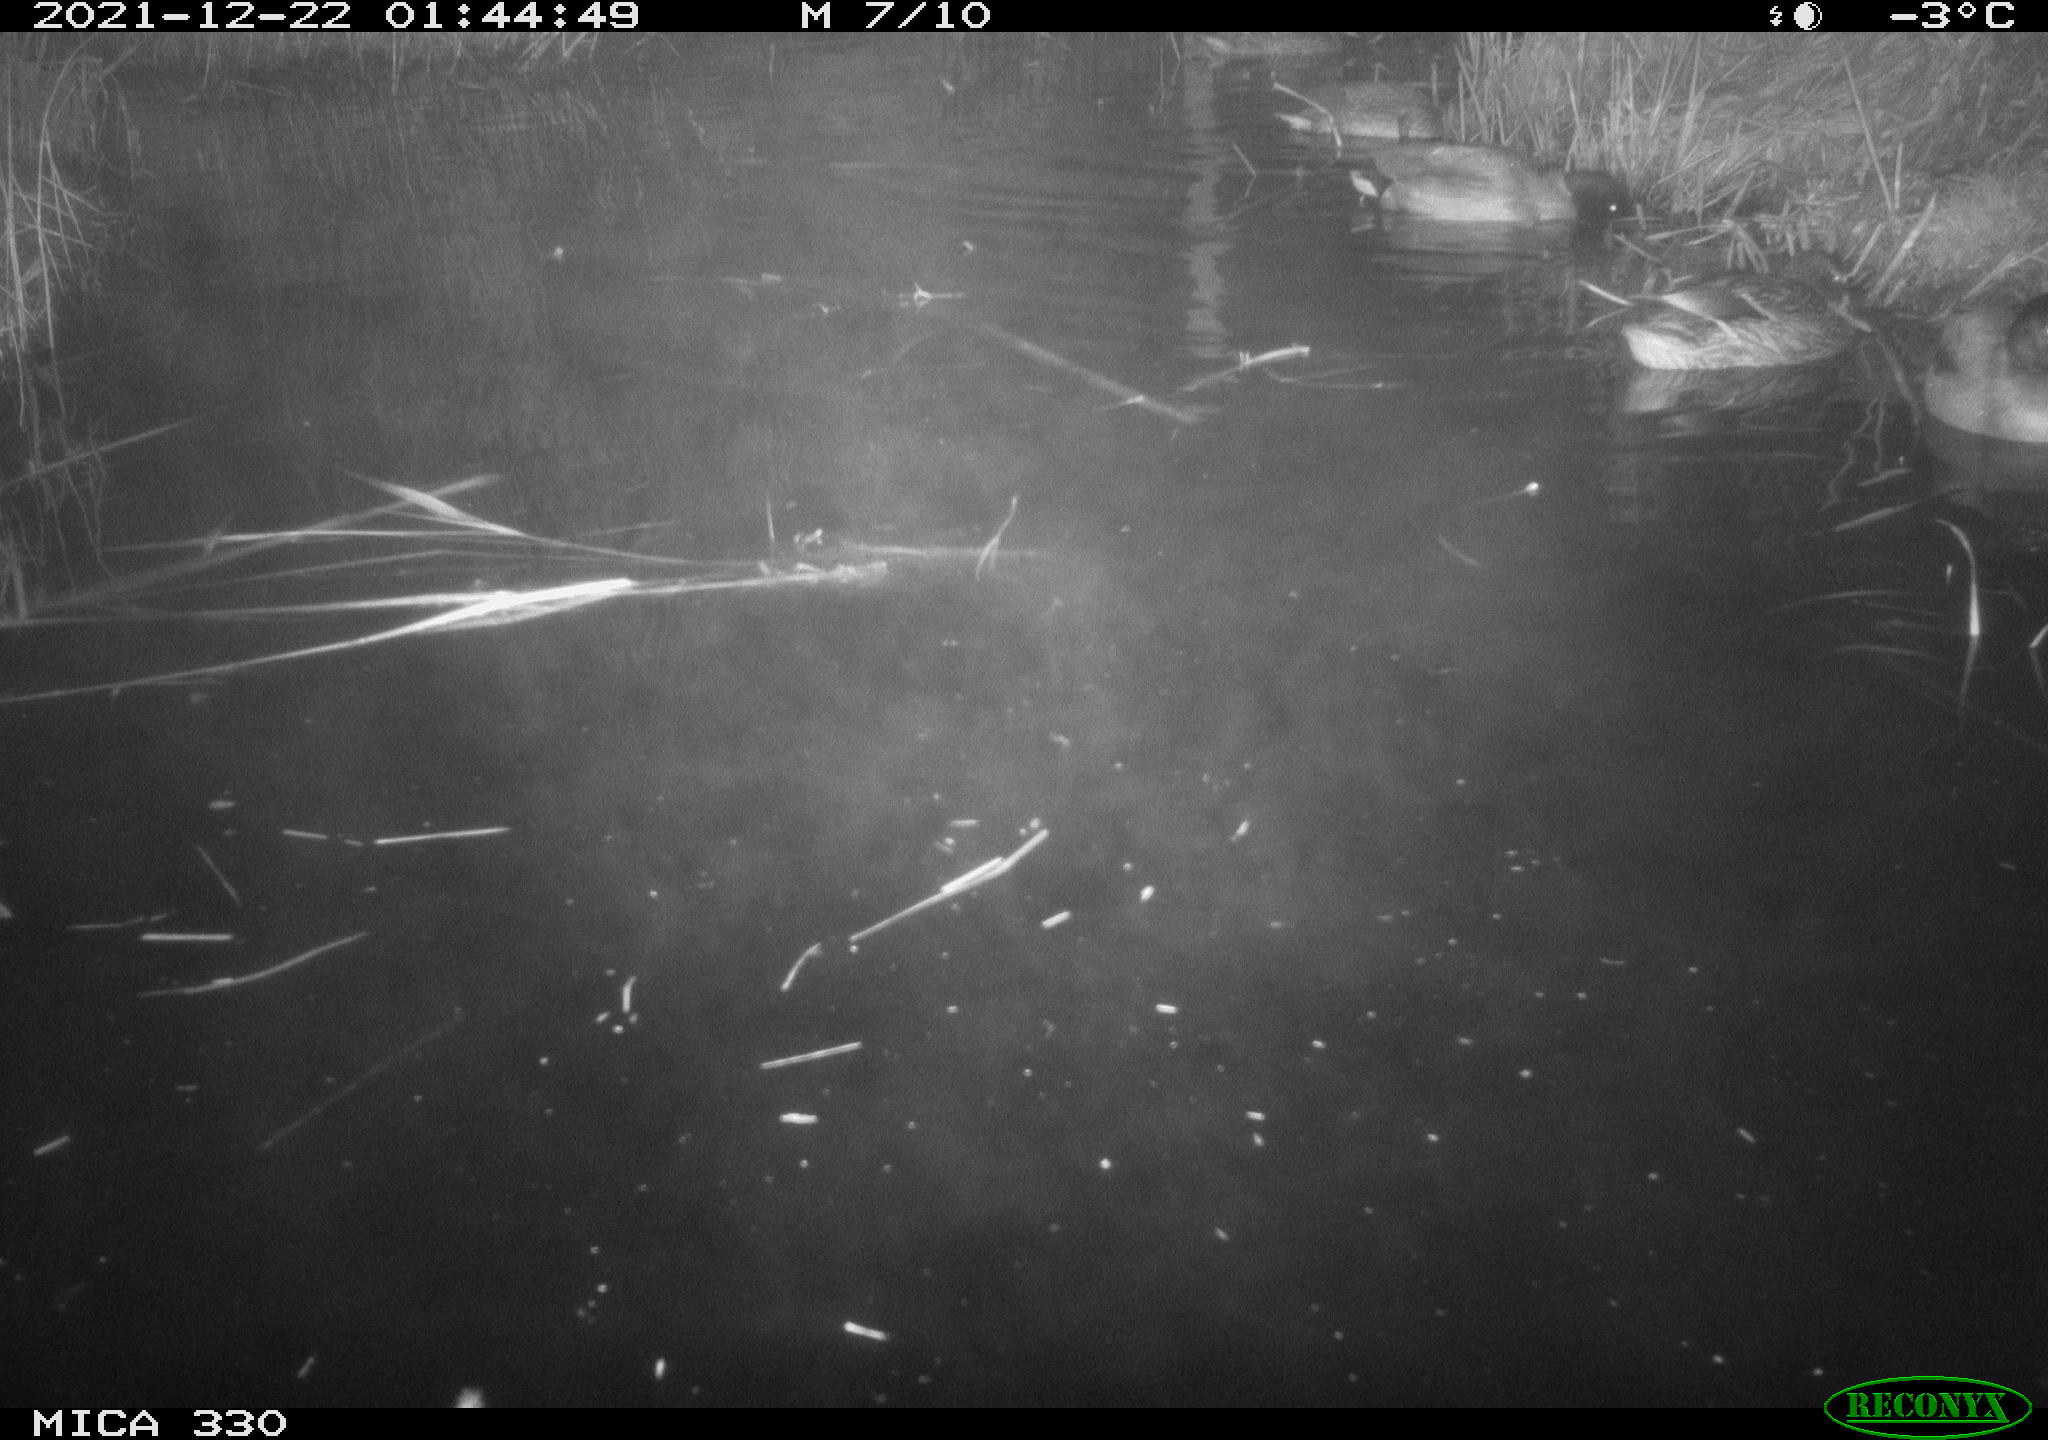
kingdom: Animalia
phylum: Chordata
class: Aves
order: Anseriformes
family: Anatidae
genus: Anas
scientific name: Anas platyrhynchos
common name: Mallard
